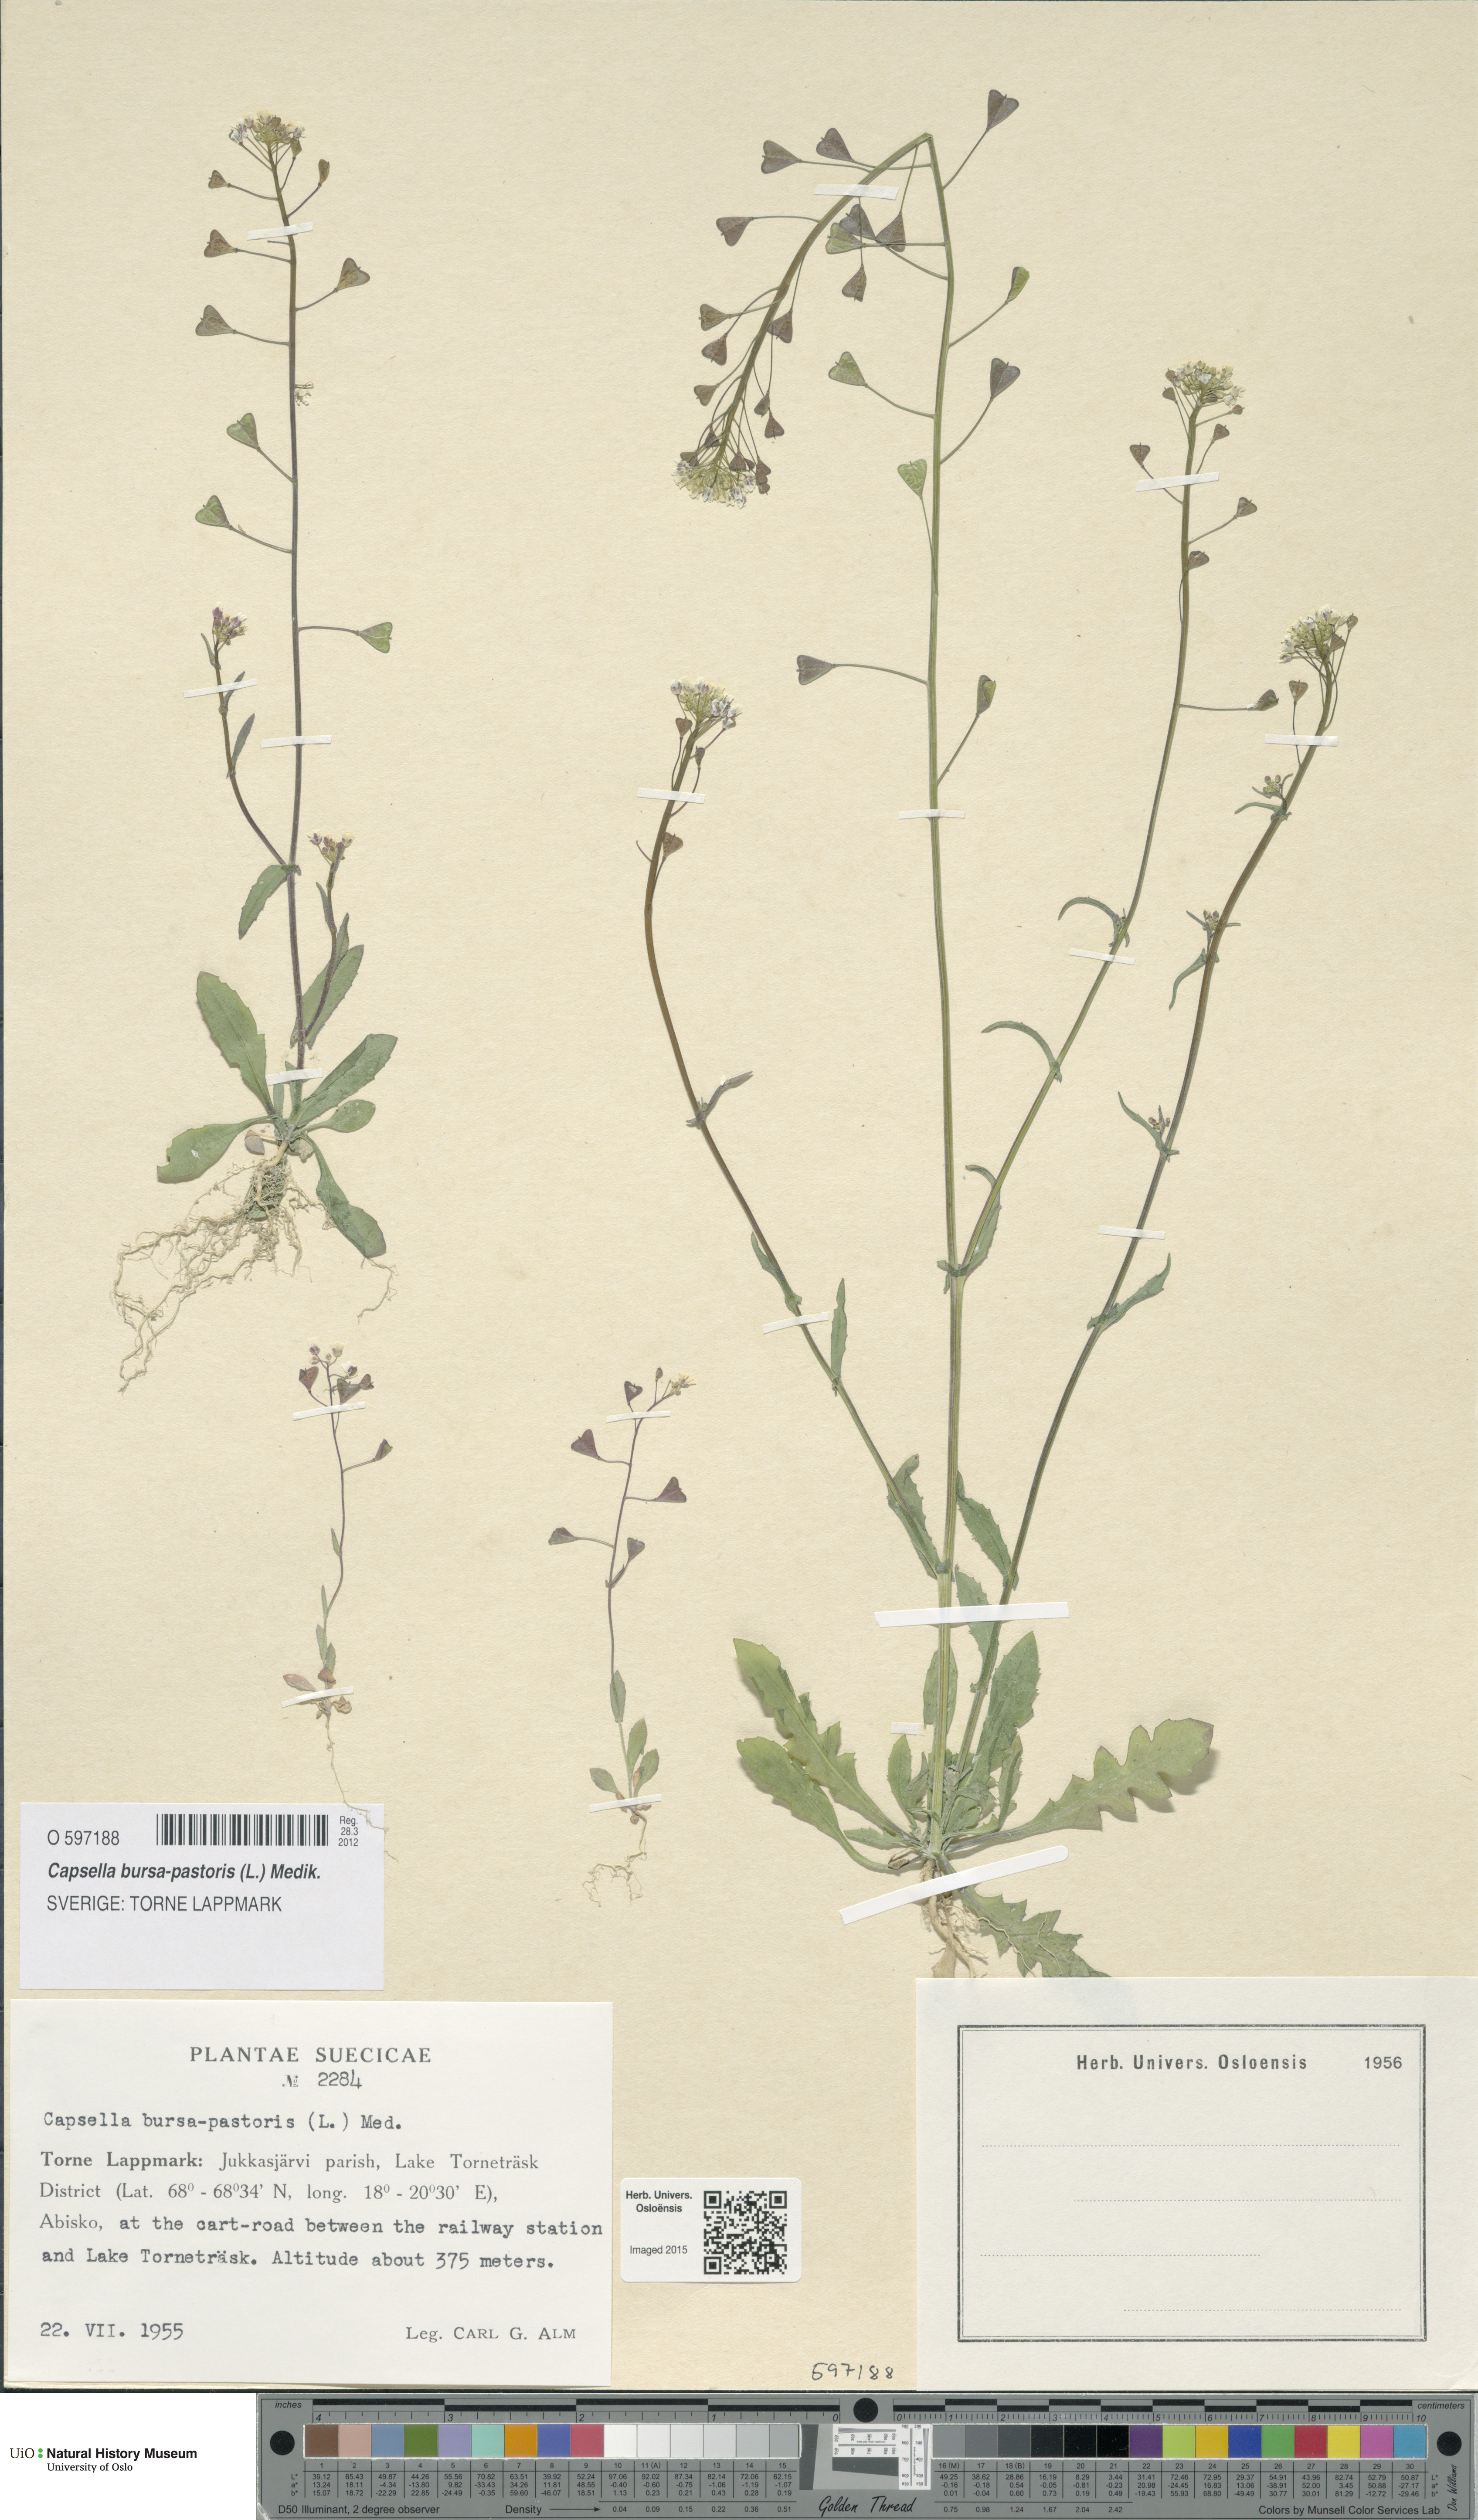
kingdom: Plantae
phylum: Tracheophyta
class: Magnoliopsida
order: Brassicales
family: Brassicaceae
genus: Capsella
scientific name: Capsella bursa-pastoris
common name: Shepherd's purse
